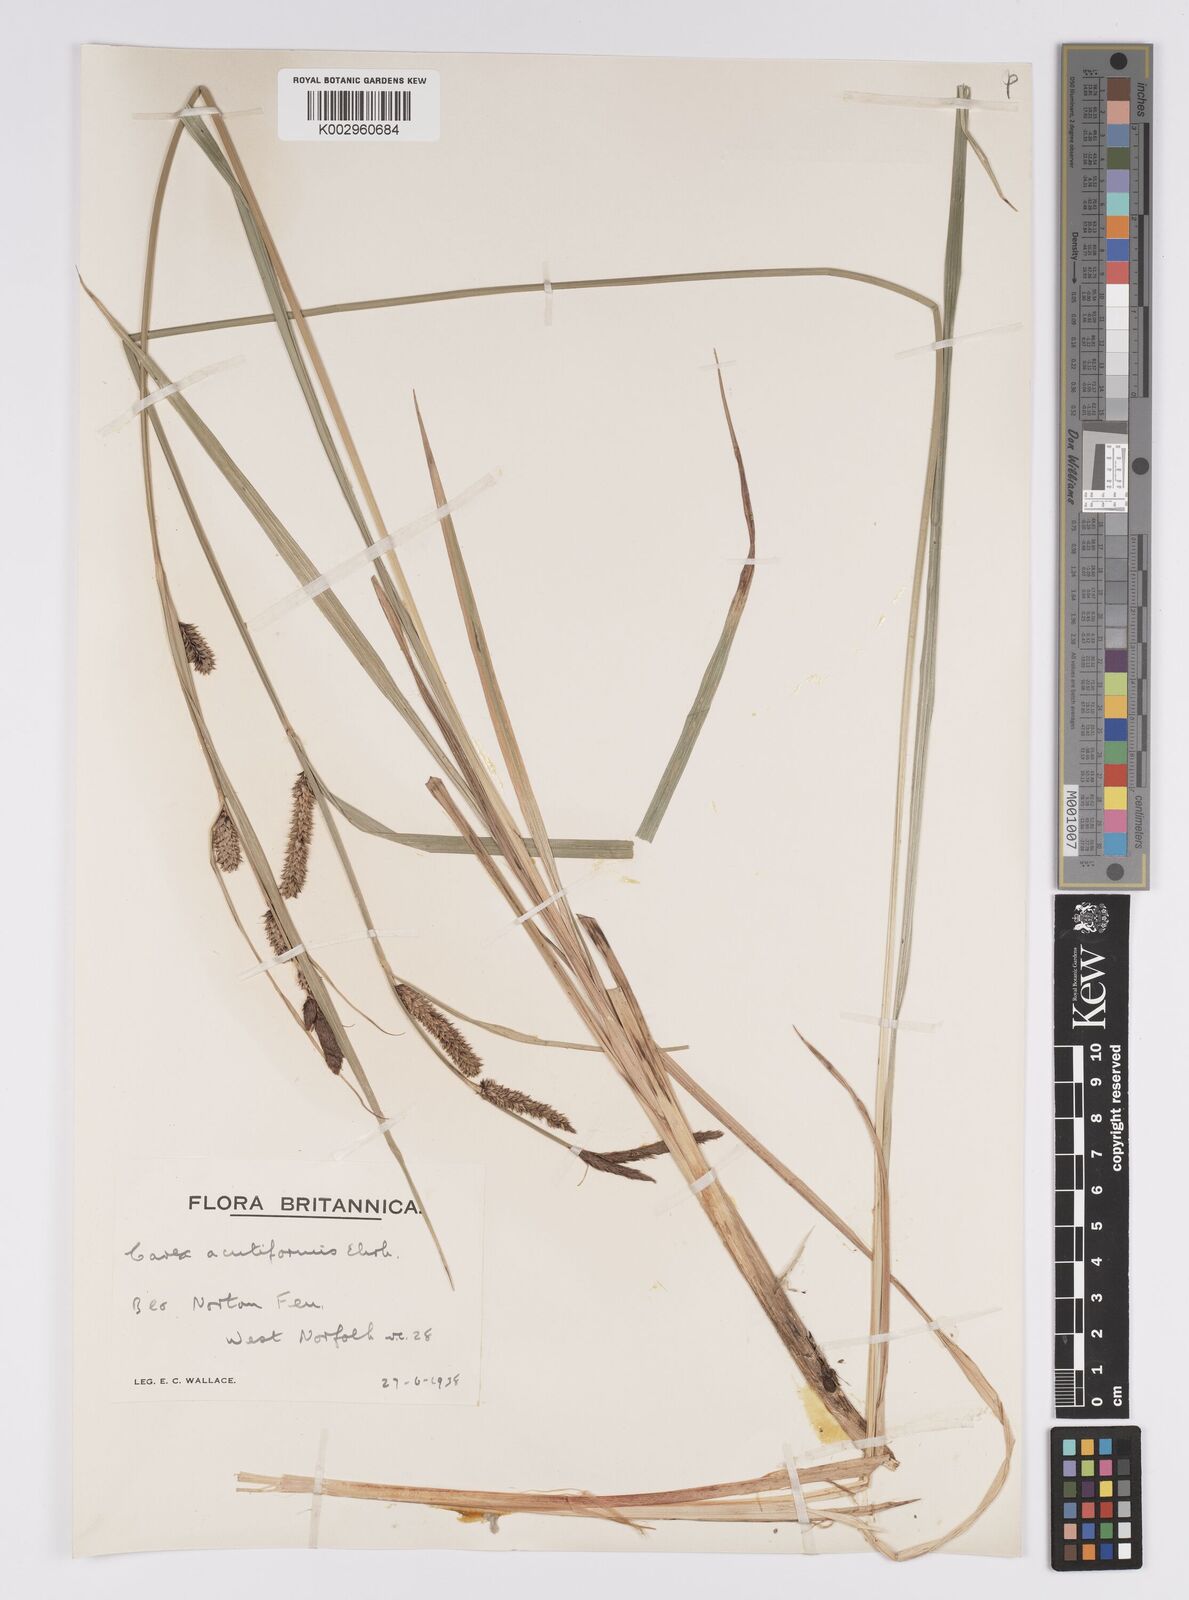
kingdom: Plantae
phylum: Tracheophyta
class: Liliopsida
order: Poales
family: Cyperaceae
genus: Carex
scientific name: Carex acutiformis
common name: Lesser pond-sedge
